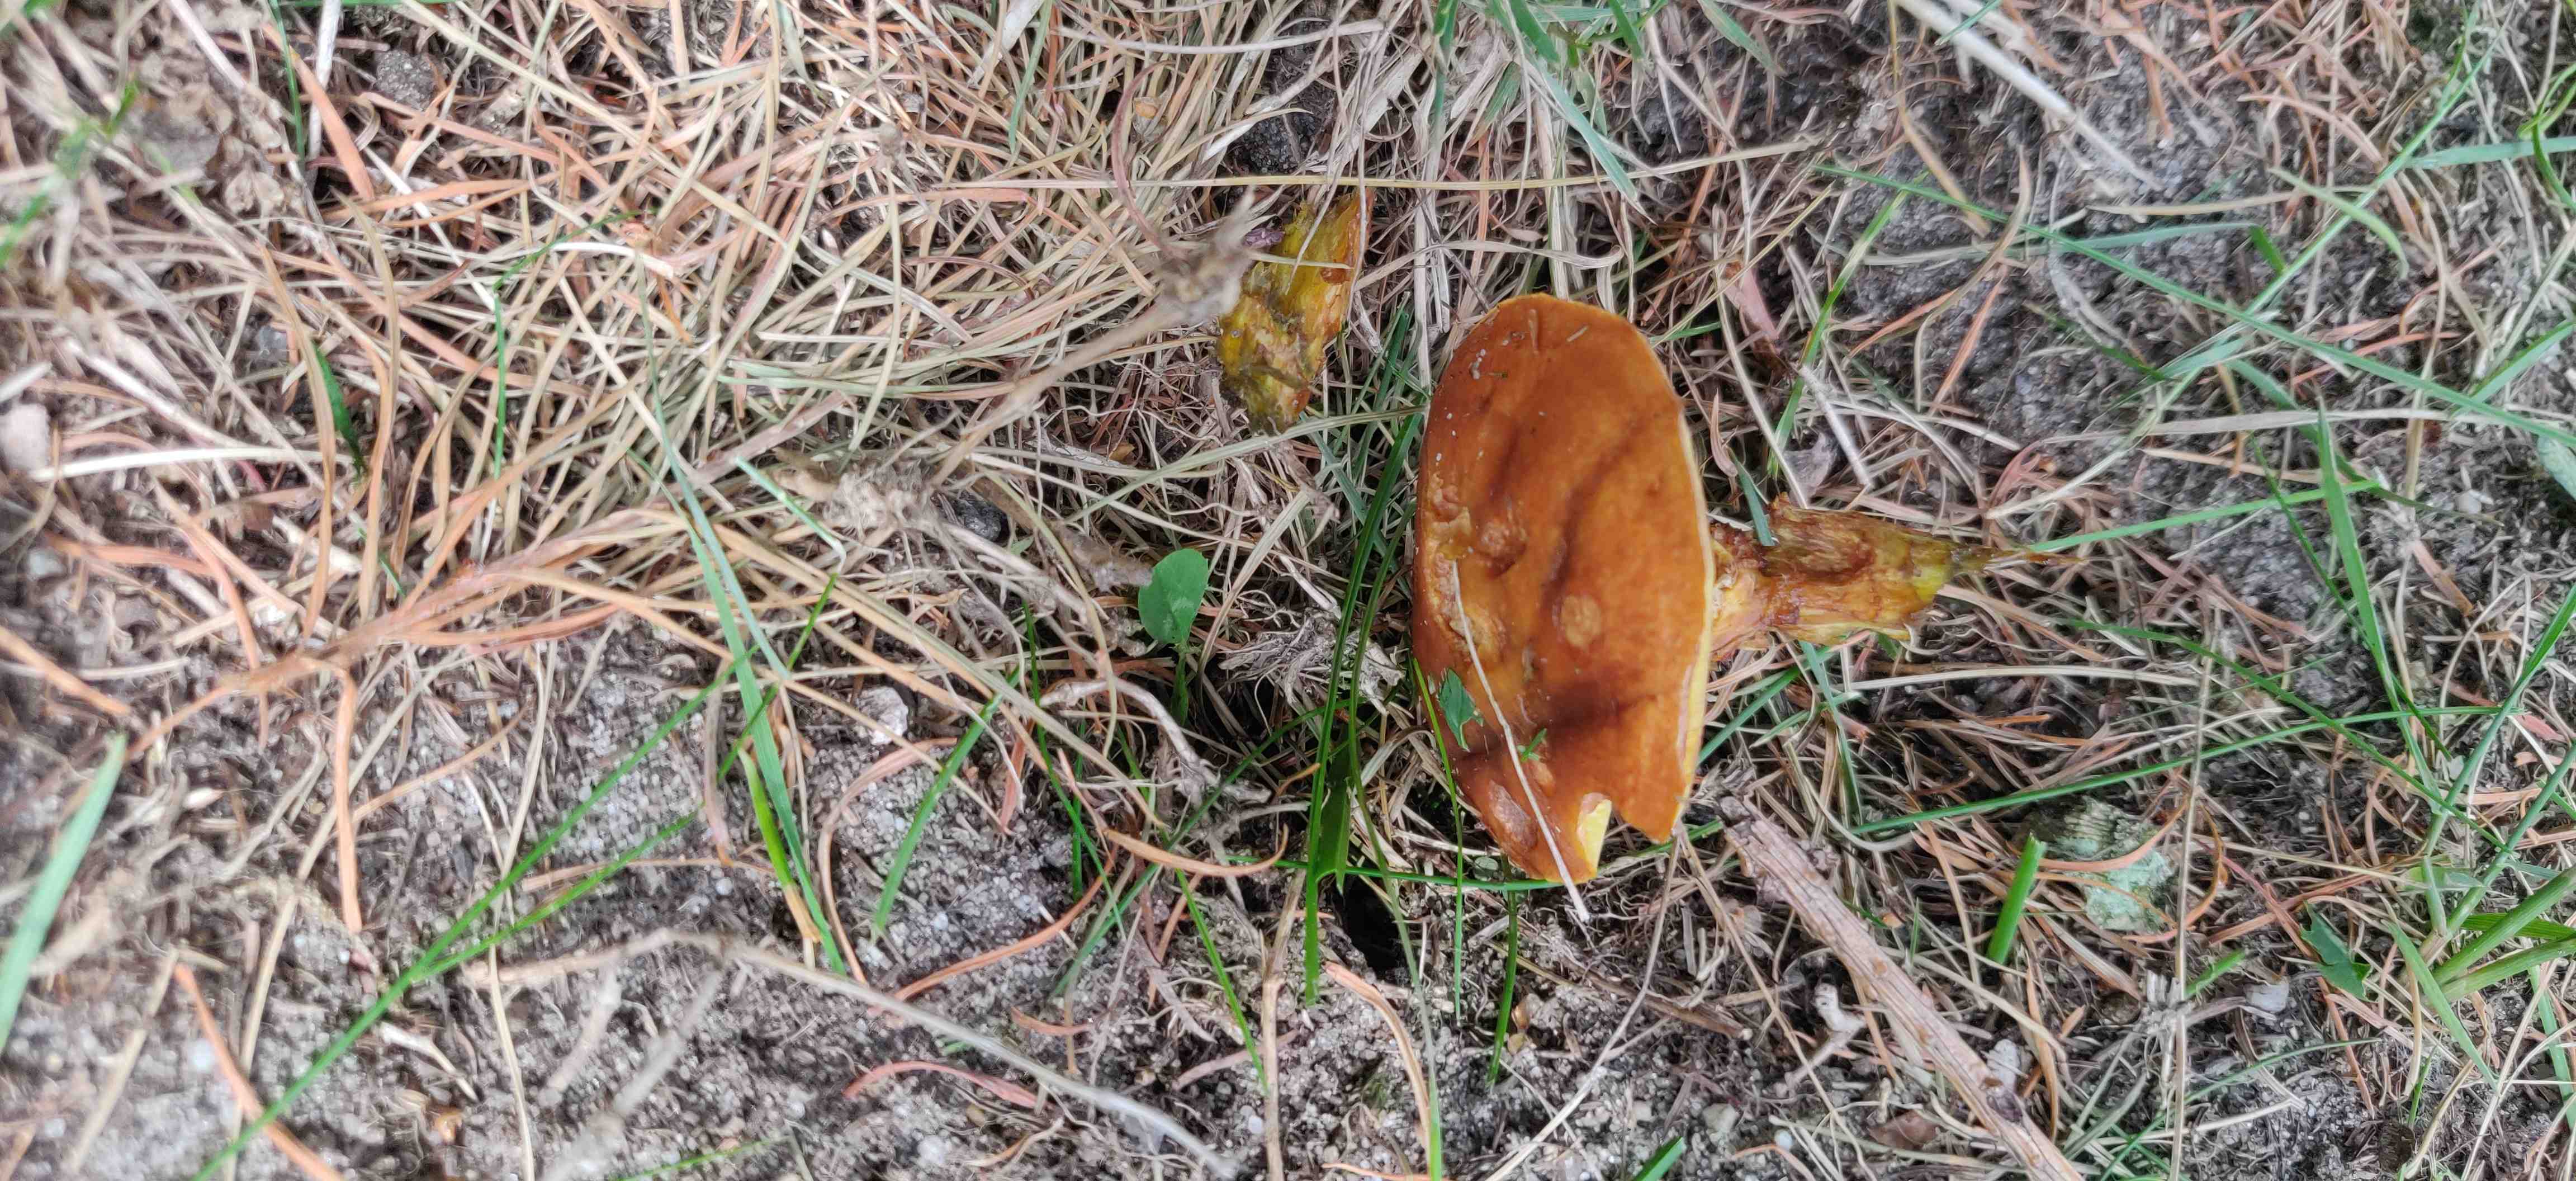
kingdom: Fungi
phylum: Basidiomycota
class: Agaricomycetes
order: Boletales
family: Suillaceae
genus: Suillus
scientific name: Suillus grevillei
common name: Larch bolete
